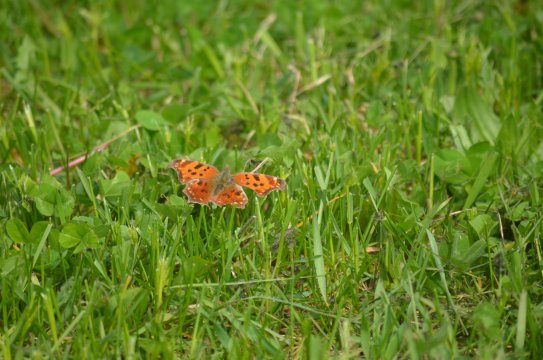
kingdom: Animalia
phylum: Arthropoda
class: Insecta
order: Lepidoptera
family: Nymphalidae
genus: Polygonia
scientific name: Polygonia comma
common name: Eastern Comma
